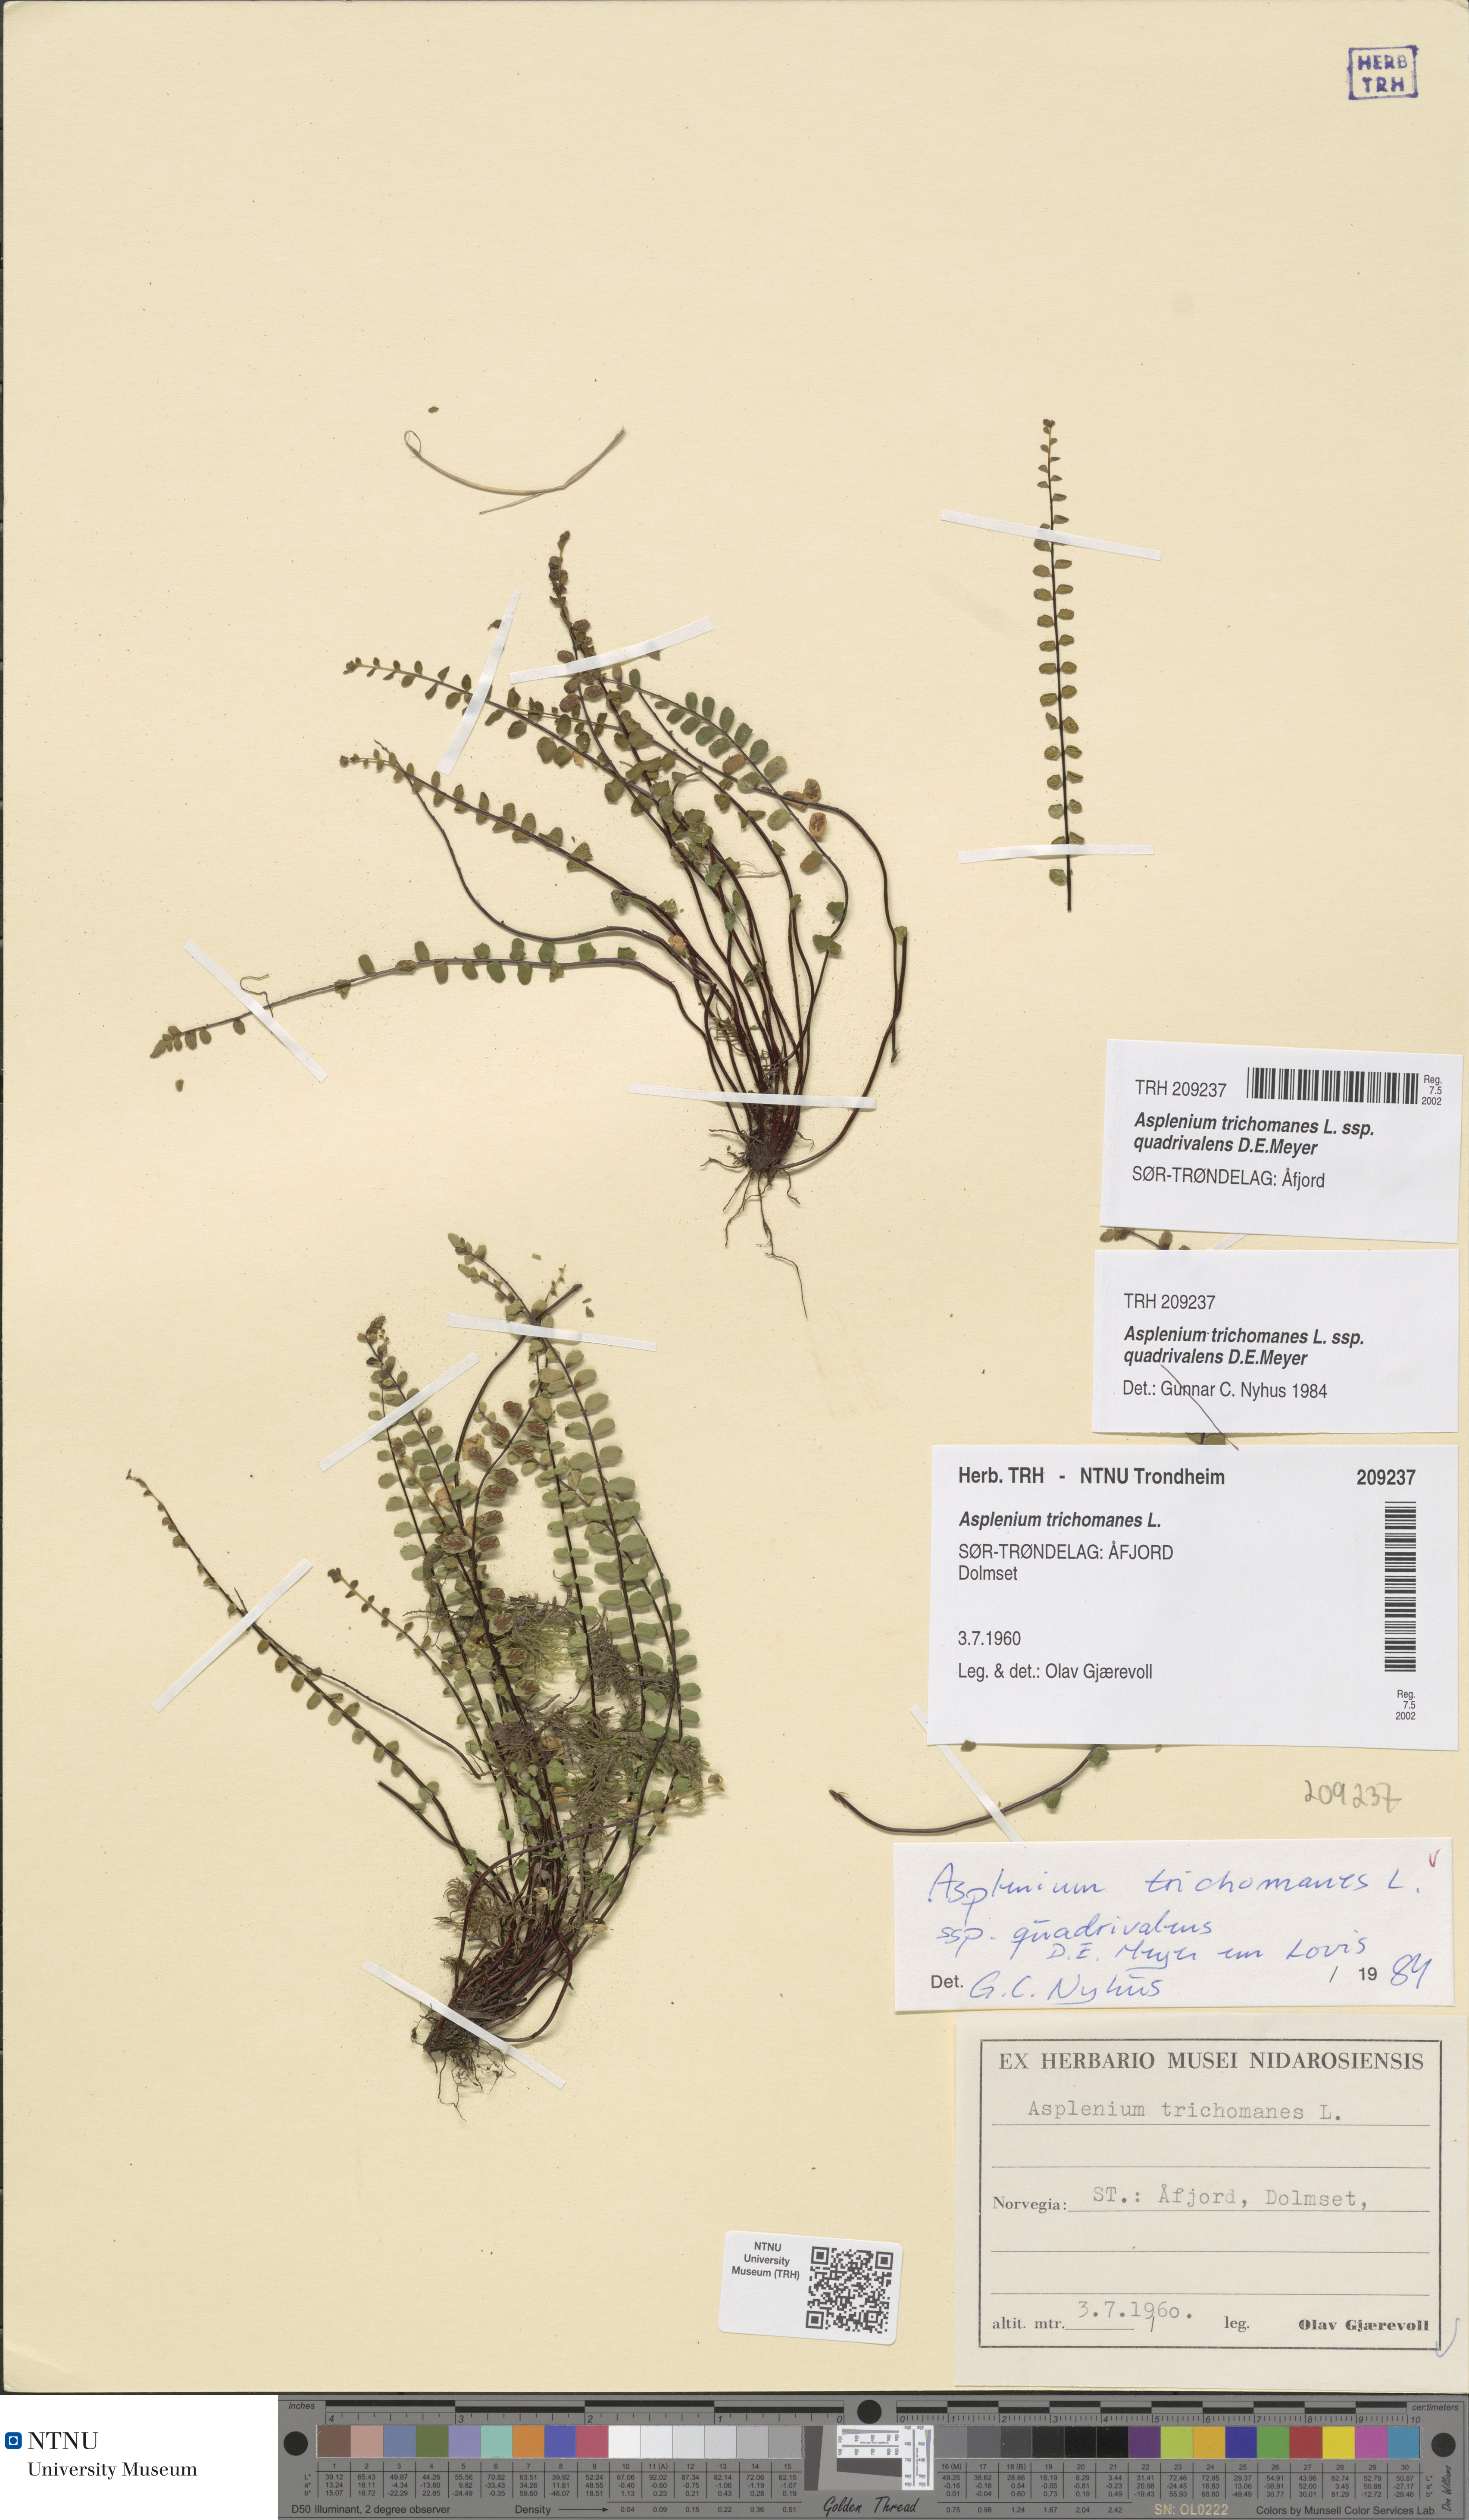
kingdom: Plantae
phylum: Tracheophyta
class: Polypodiopsida
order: Polypodiales
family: Aspleniaceae
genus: Asplenium
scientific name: Asplenium quadrivalens
